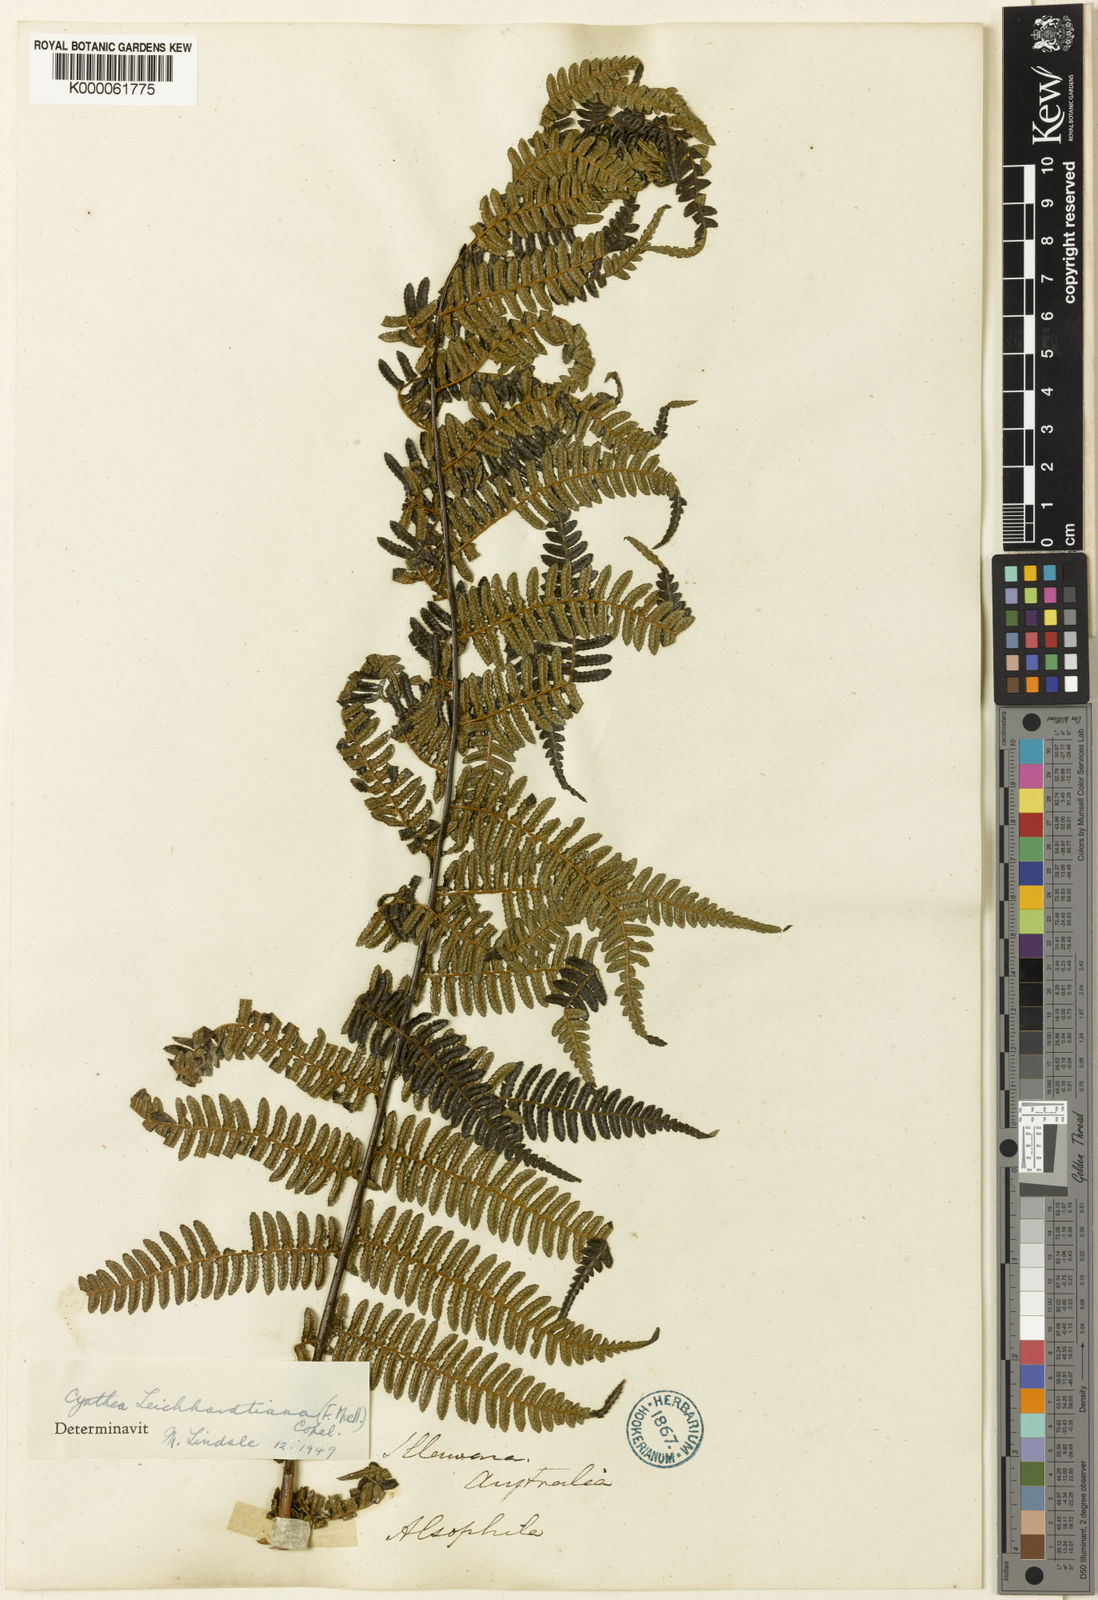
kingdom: Plantae
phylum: Tracheophyta
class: Polypodiopsida
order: Cyatheales
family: Cyatheaceae
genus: Alsophila
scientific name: Alsophila leichhardtiana
